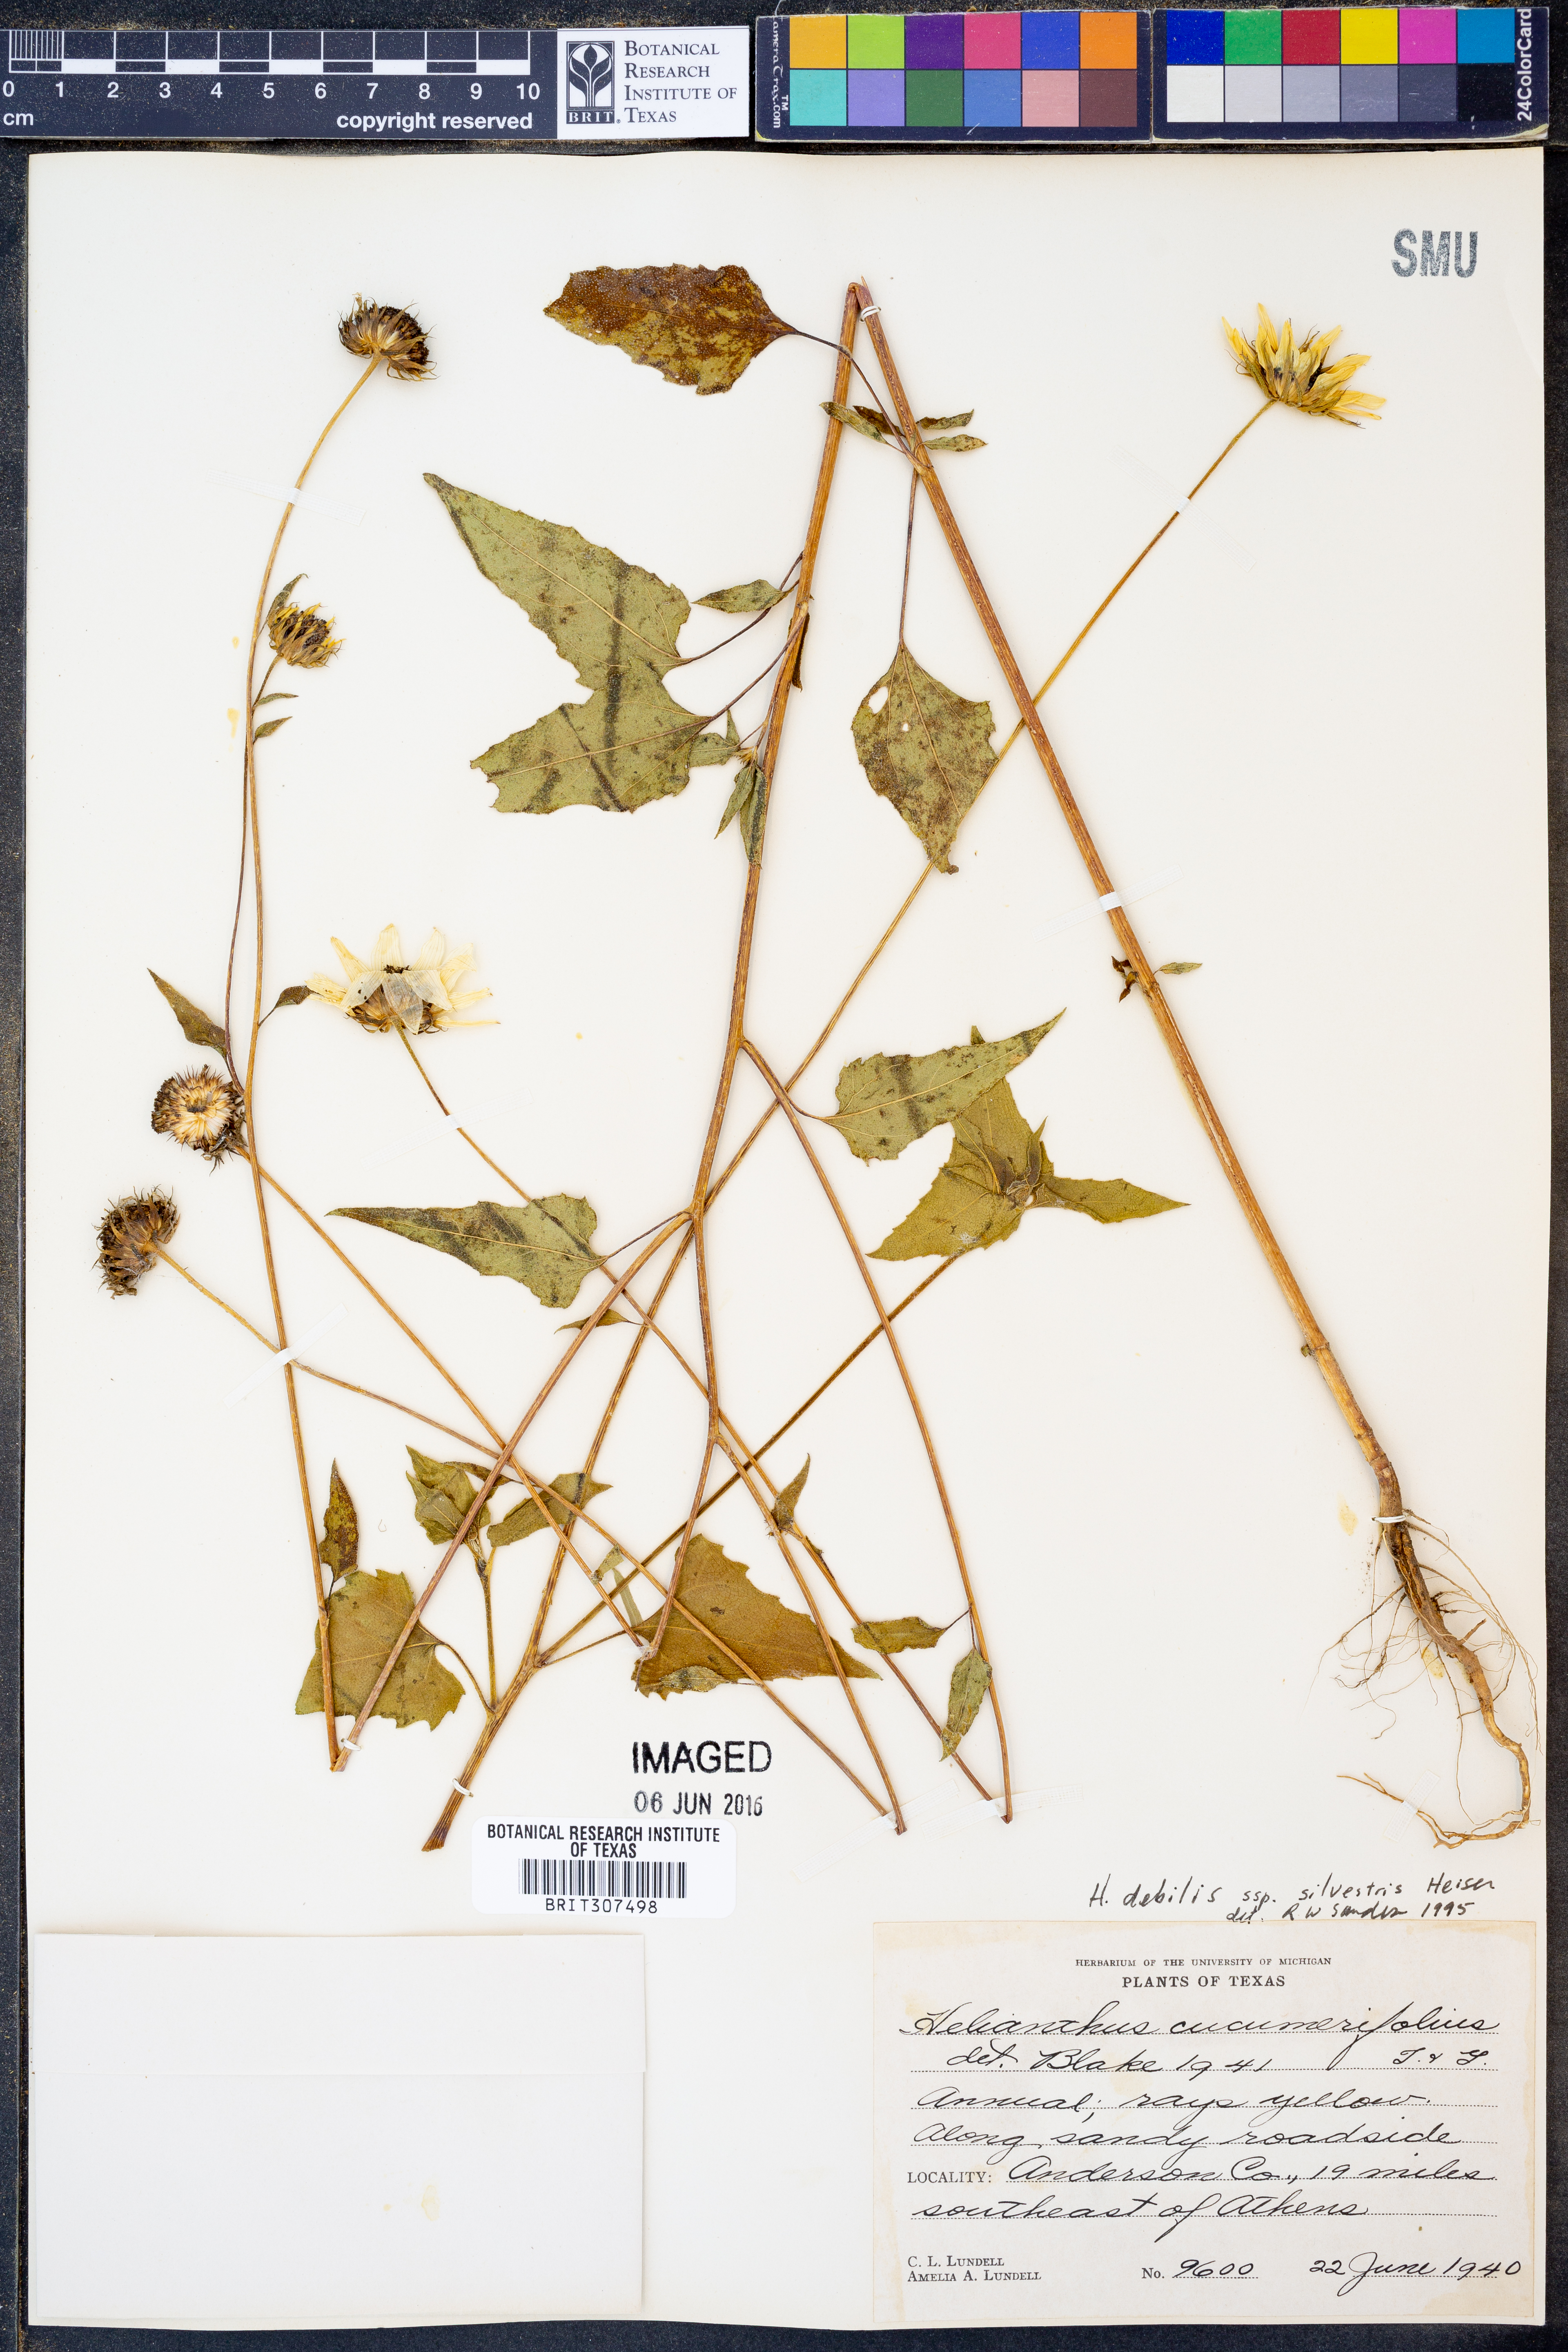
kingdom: Plantae
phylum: Tracheophyta
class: Magnoliopsida
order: Asterales
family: Asteraceae
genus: Helianthus
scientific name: Helianthus debilis
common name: Weak sunflower
